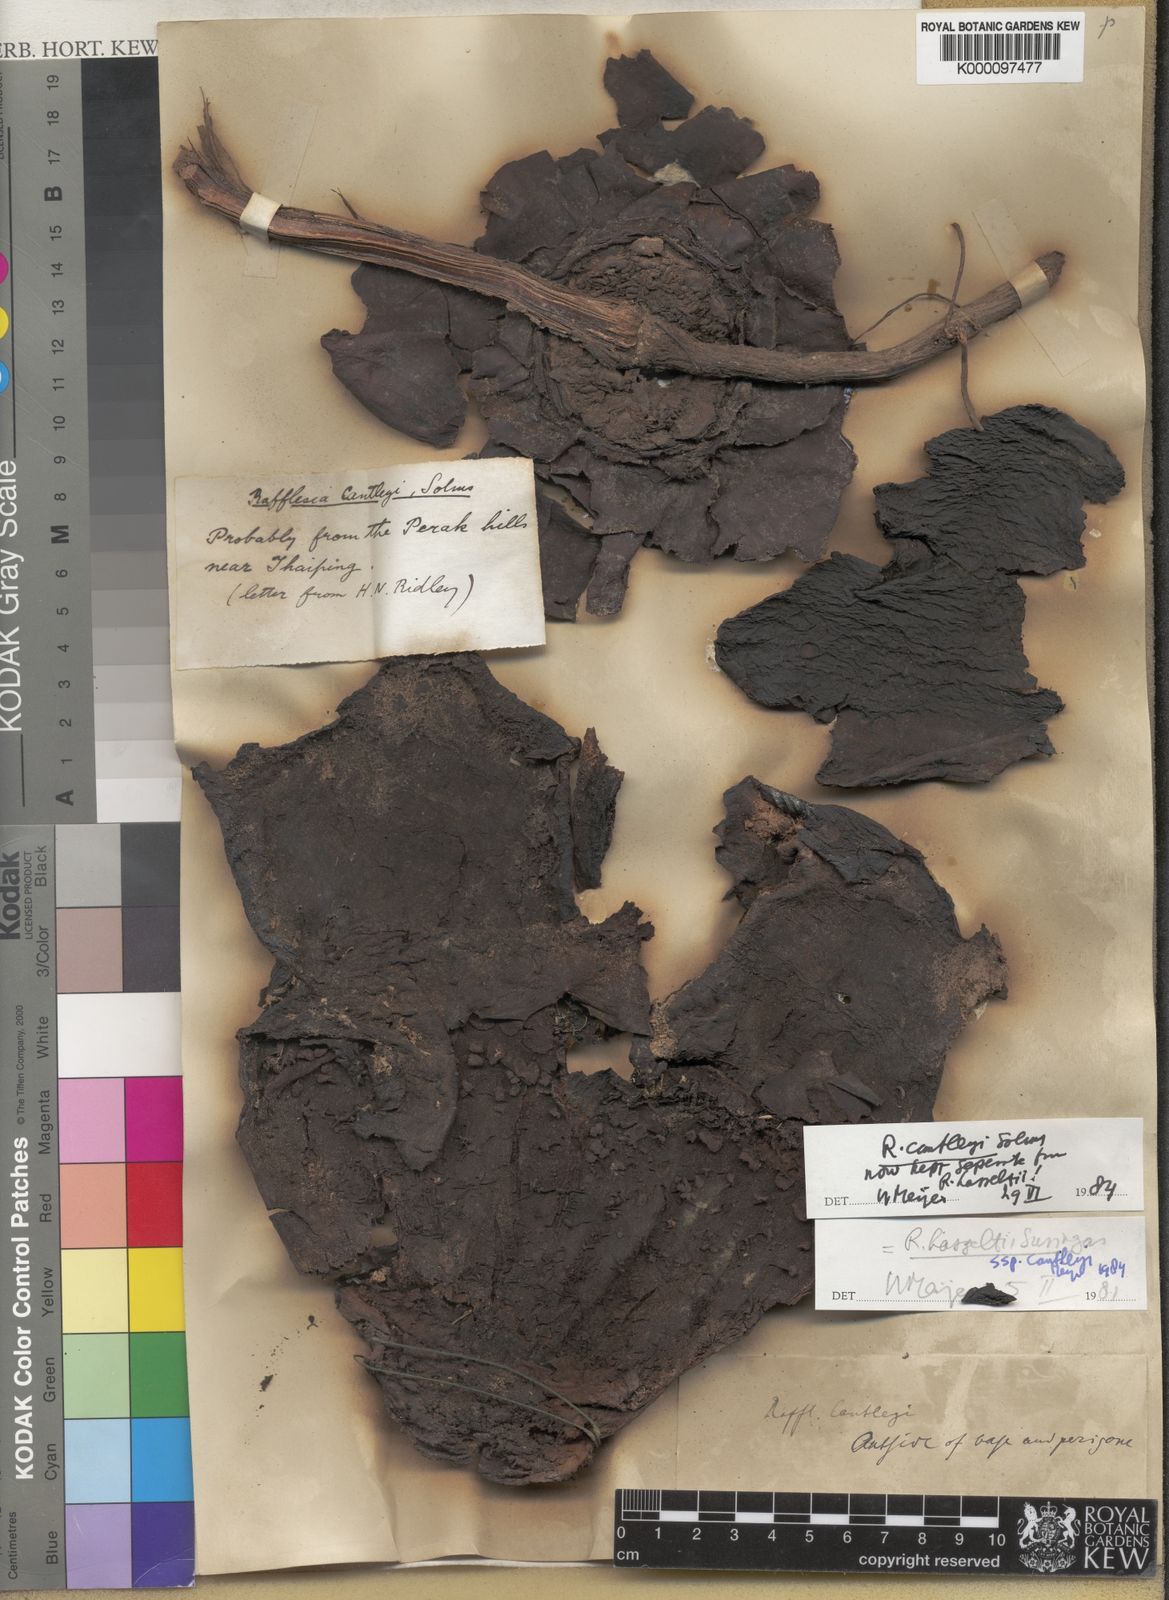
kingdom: Plantae
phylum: Tracheophyta
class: Magnoliopsida
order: Malpighiales
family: Rafflesiaceae
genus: Rafflesia
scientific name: Rafflesia cantleyi
